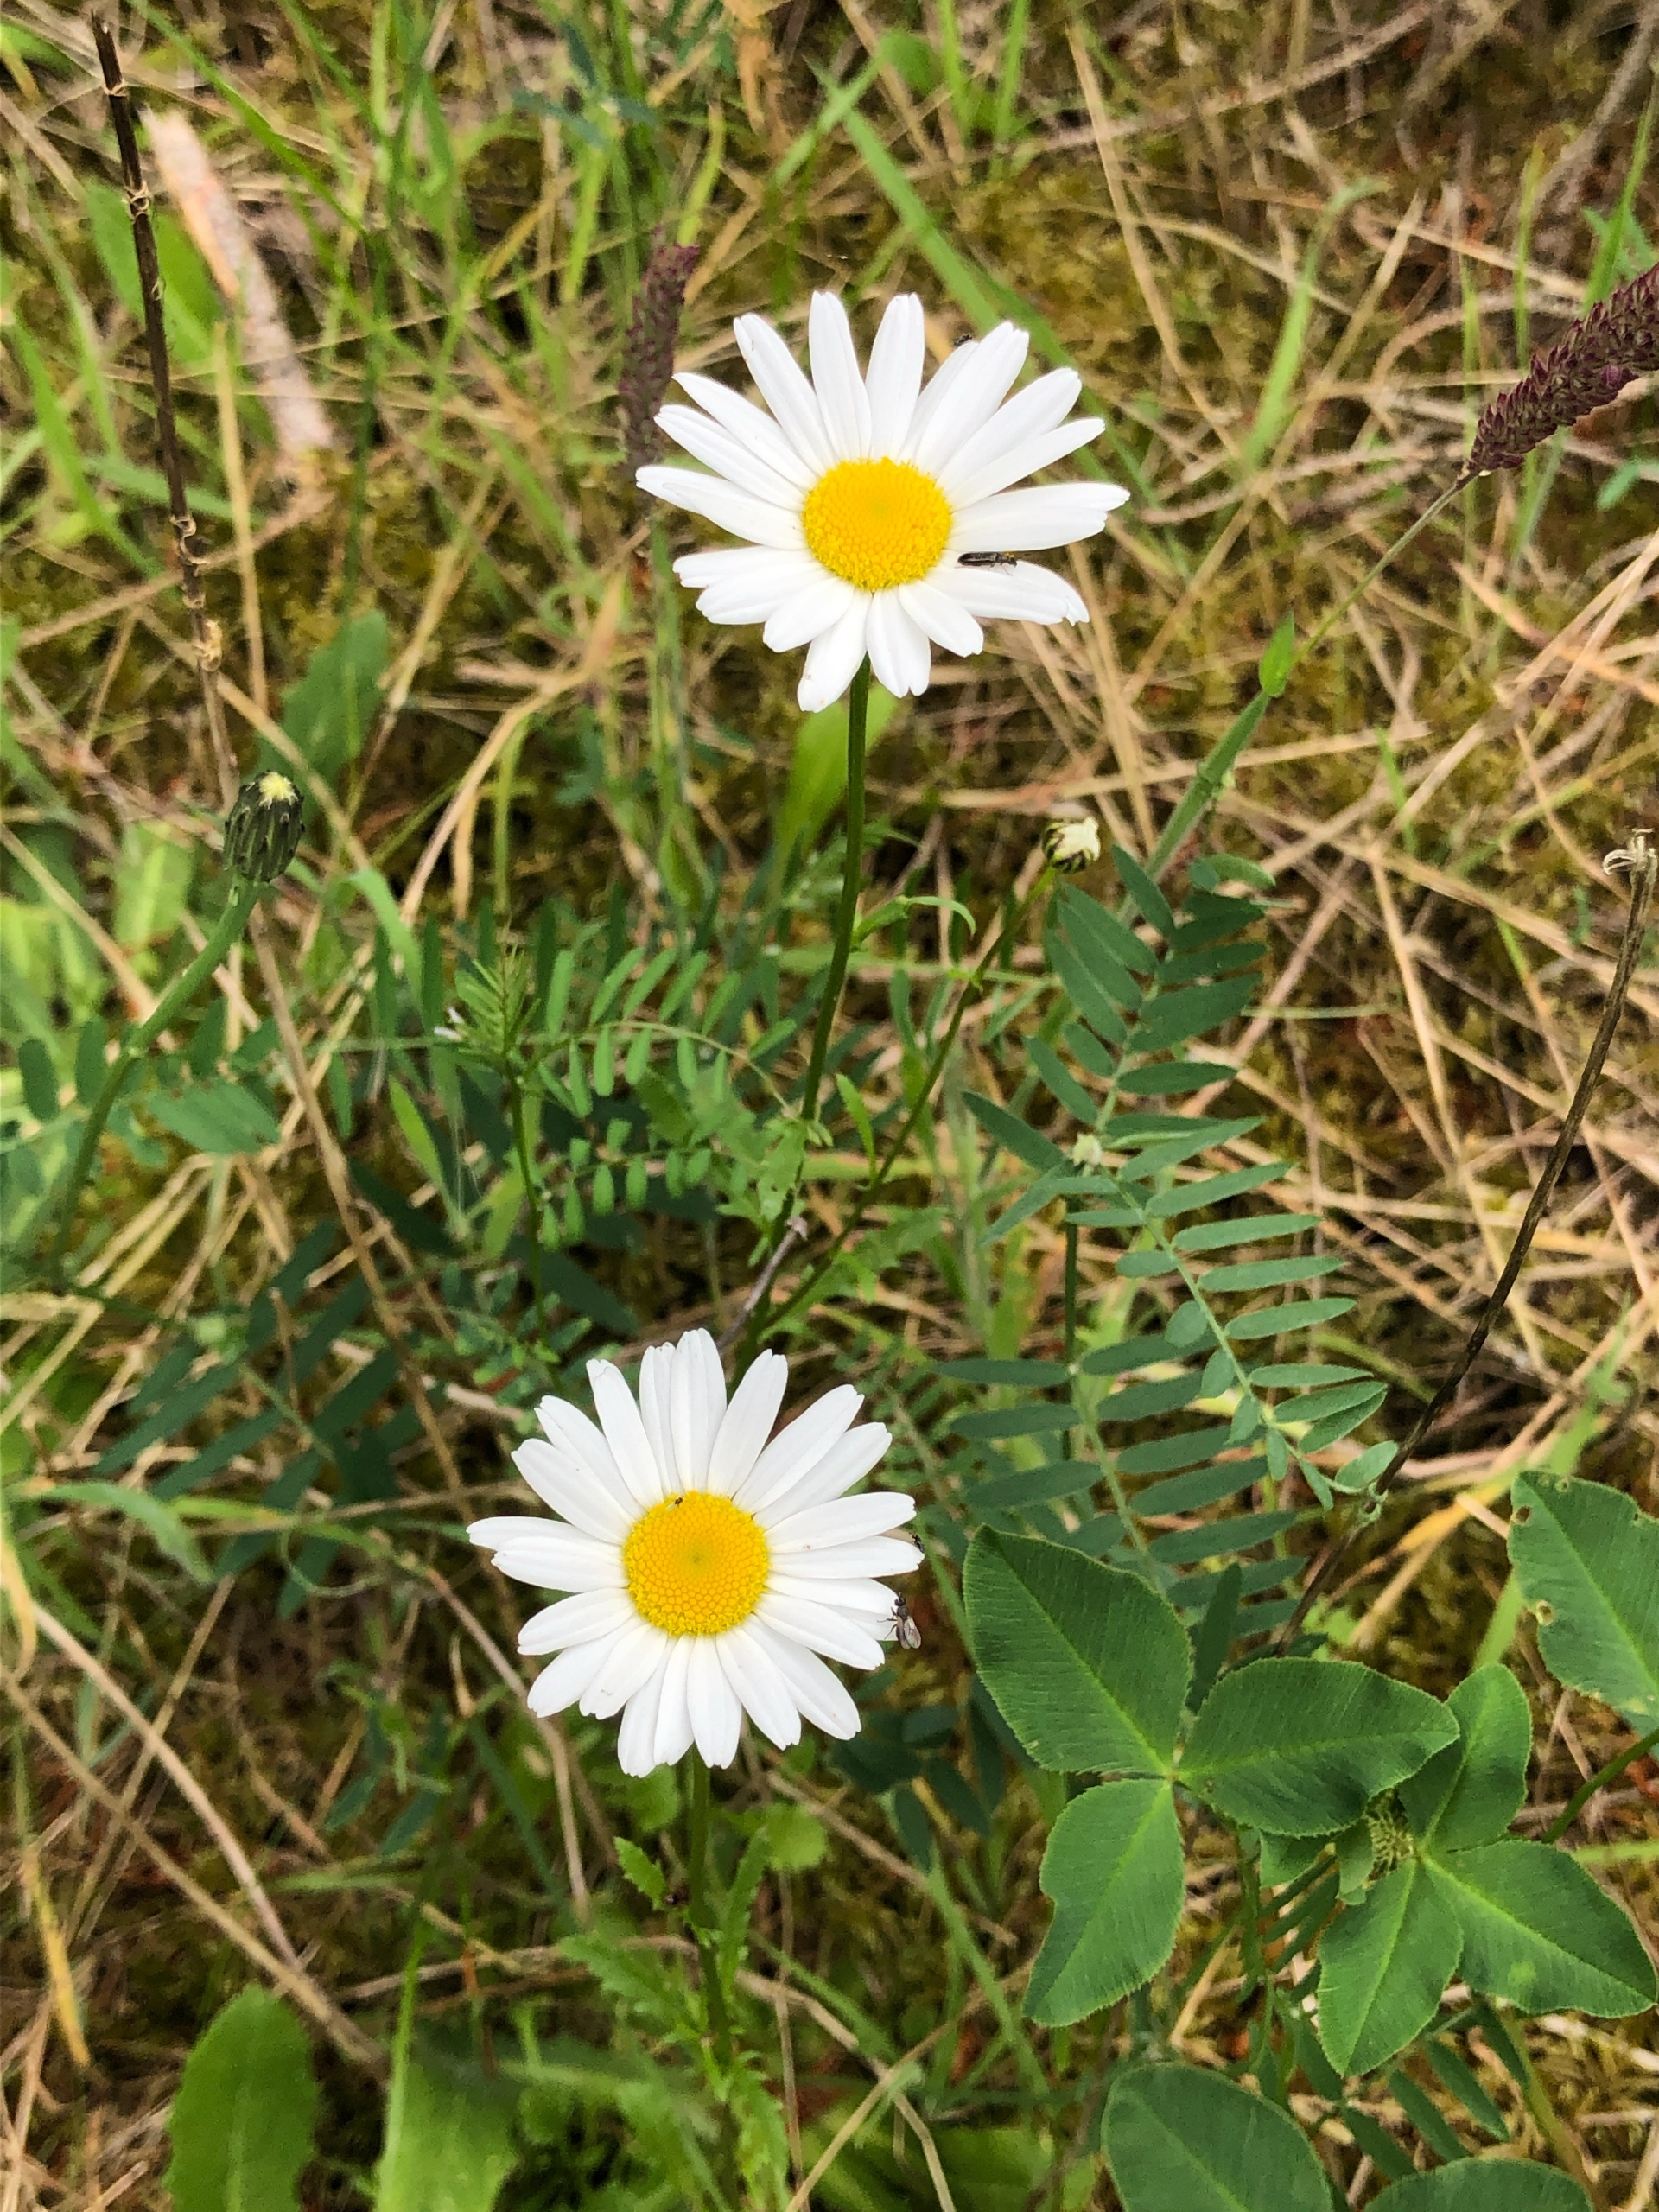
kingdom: Plantae
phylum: Tracheophyta
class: Magnoliopsida
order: Asterales
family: Asteraceae
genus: Leucanthemum
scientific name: Leucanthemum vulgare
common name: Hvid okseøje
